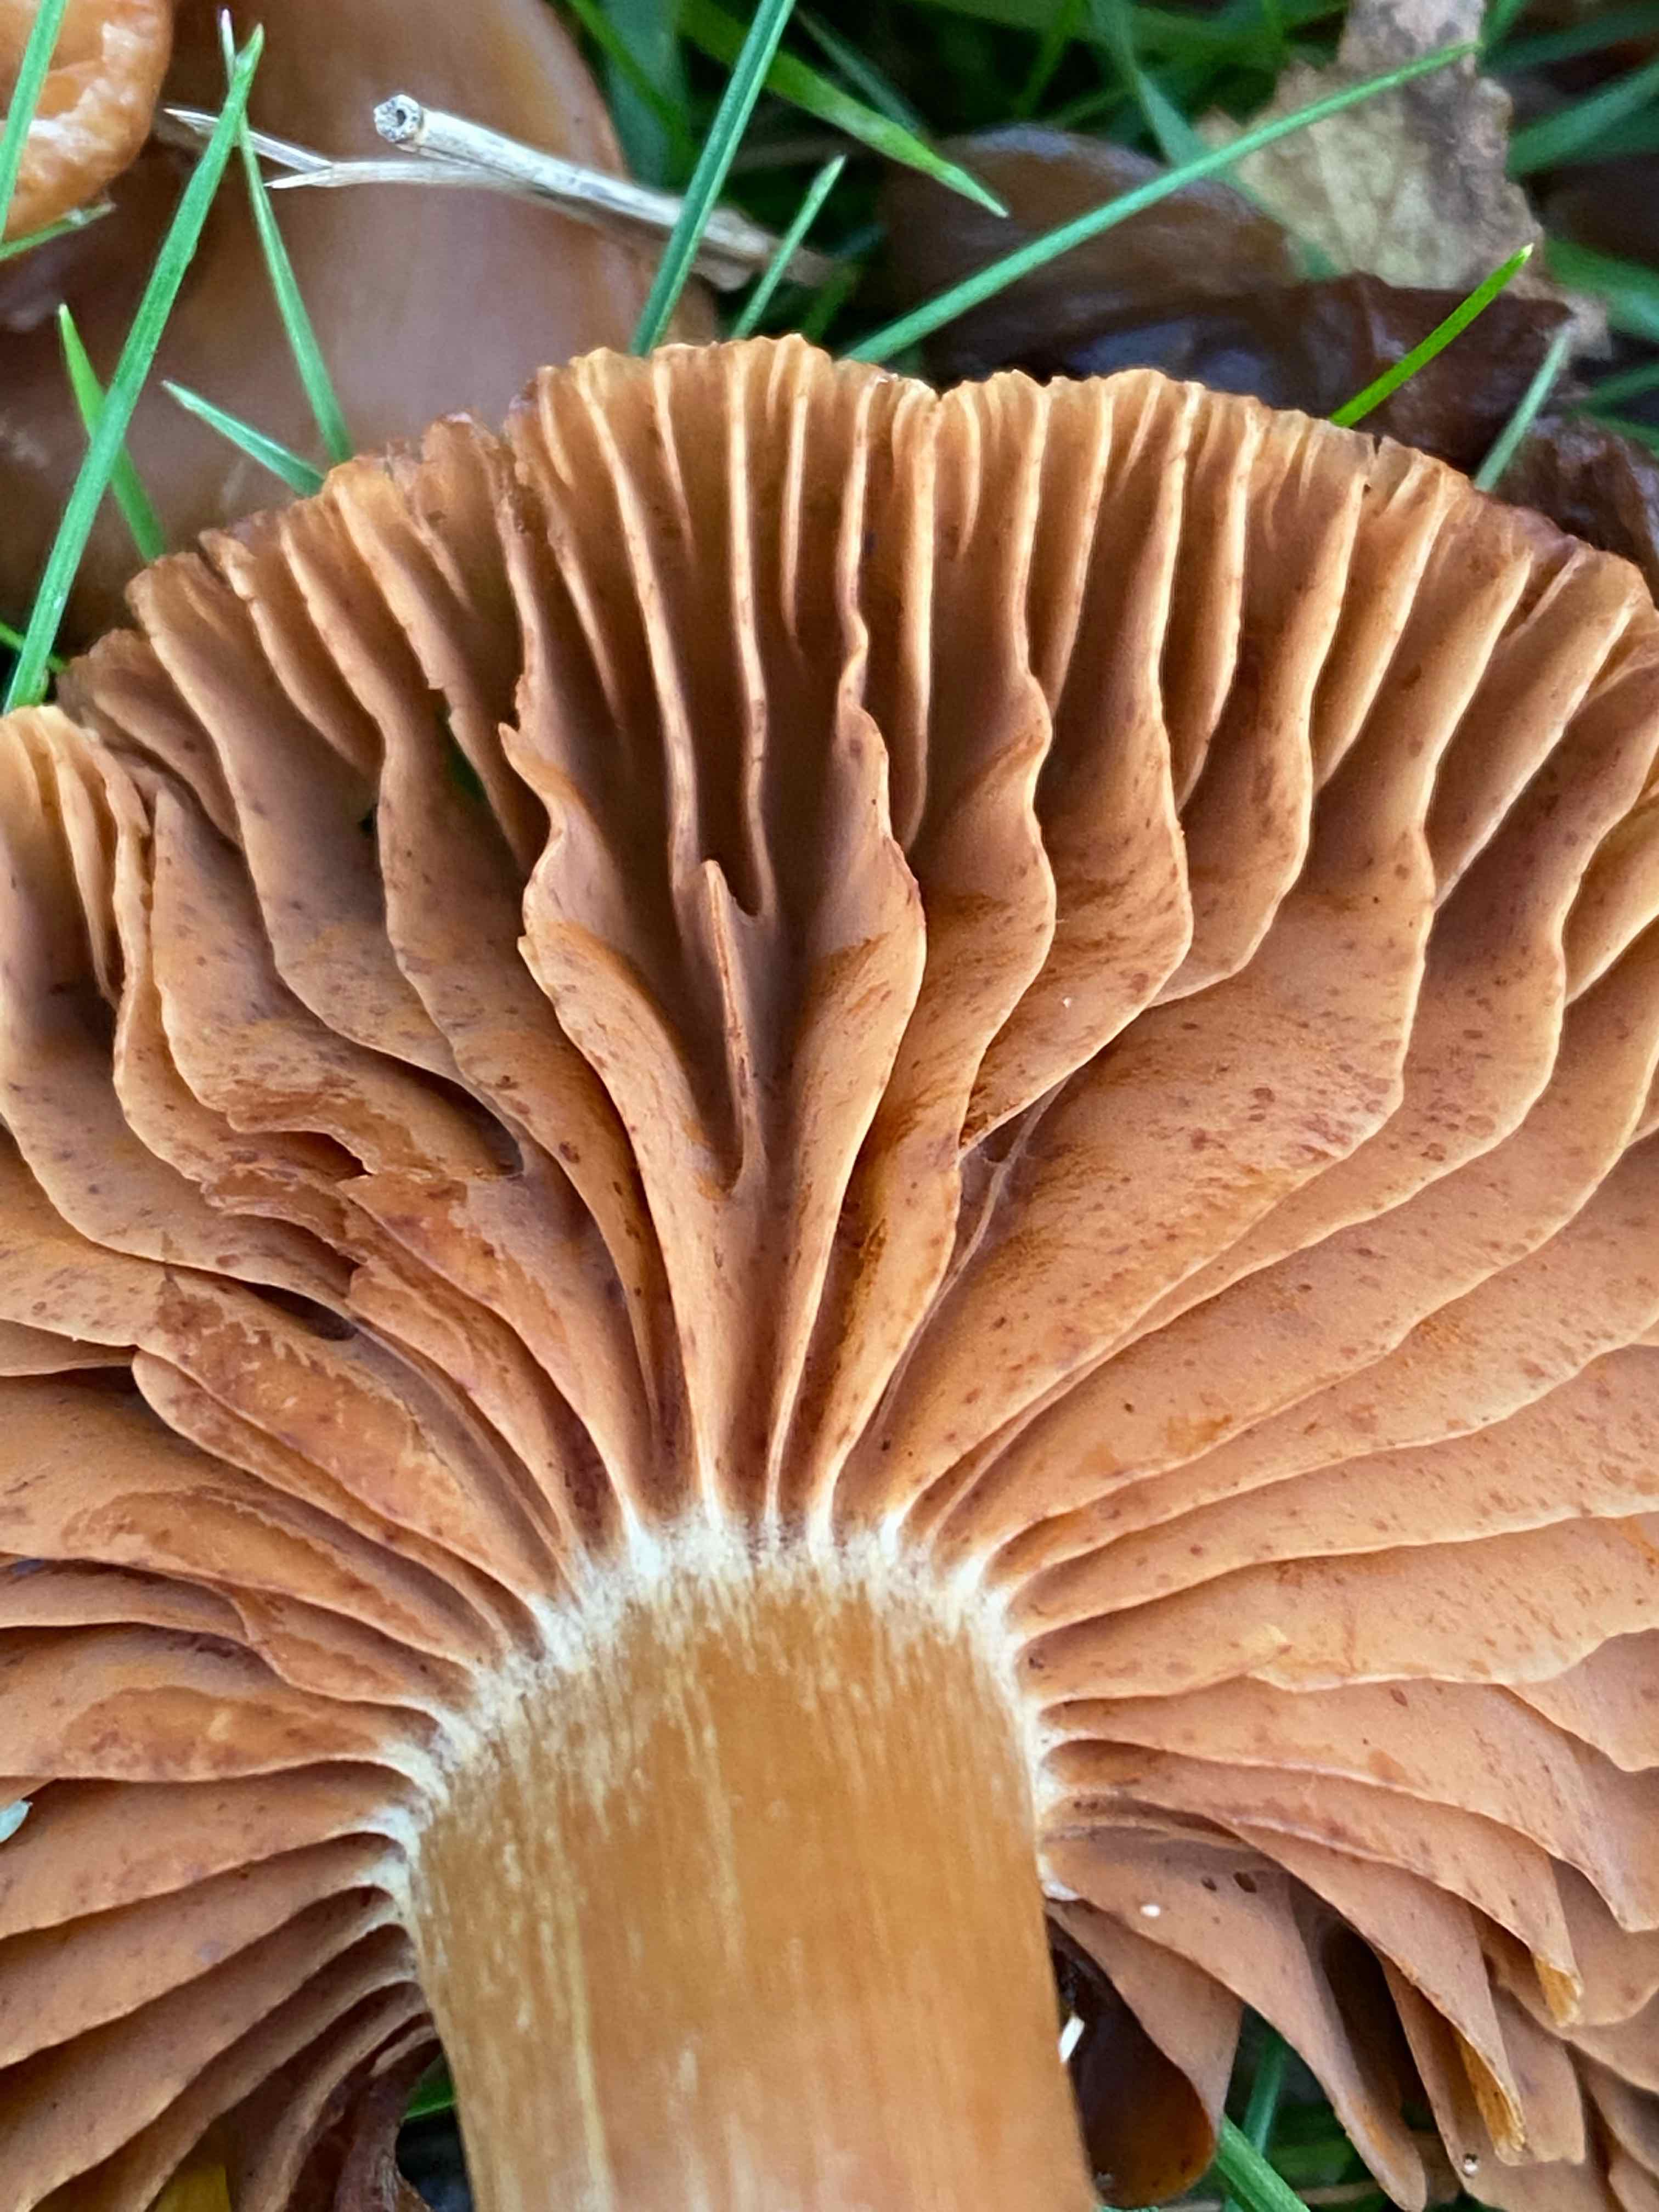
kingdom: Fungi
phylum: Basidiomycota
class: Agaricomycetes
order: Agaricales
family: Cortinariaceae
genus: Cortinarius
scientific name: Cortinarius
